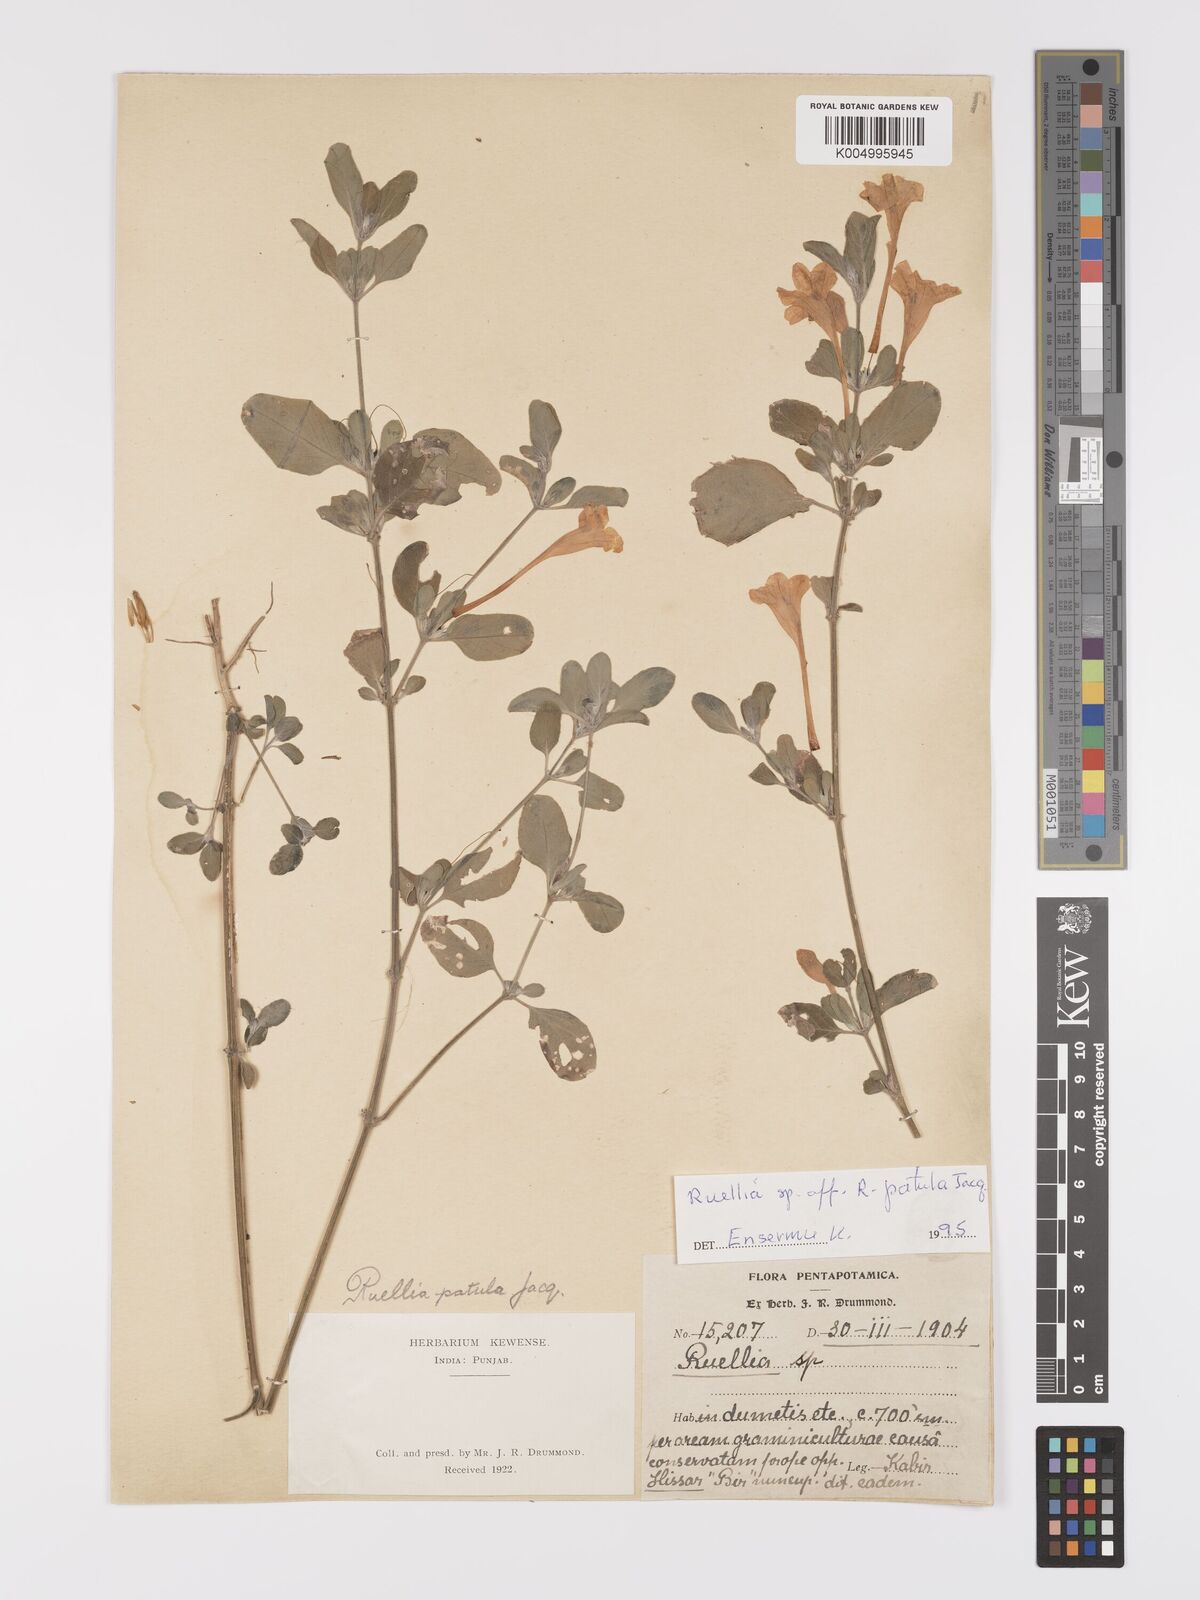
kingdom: Plantae
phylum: Tracheophyta
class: Magnoliopsida
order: Lamiales
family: Acanthaceae
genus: Ruellia
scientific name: Ruellia pseudopatula
